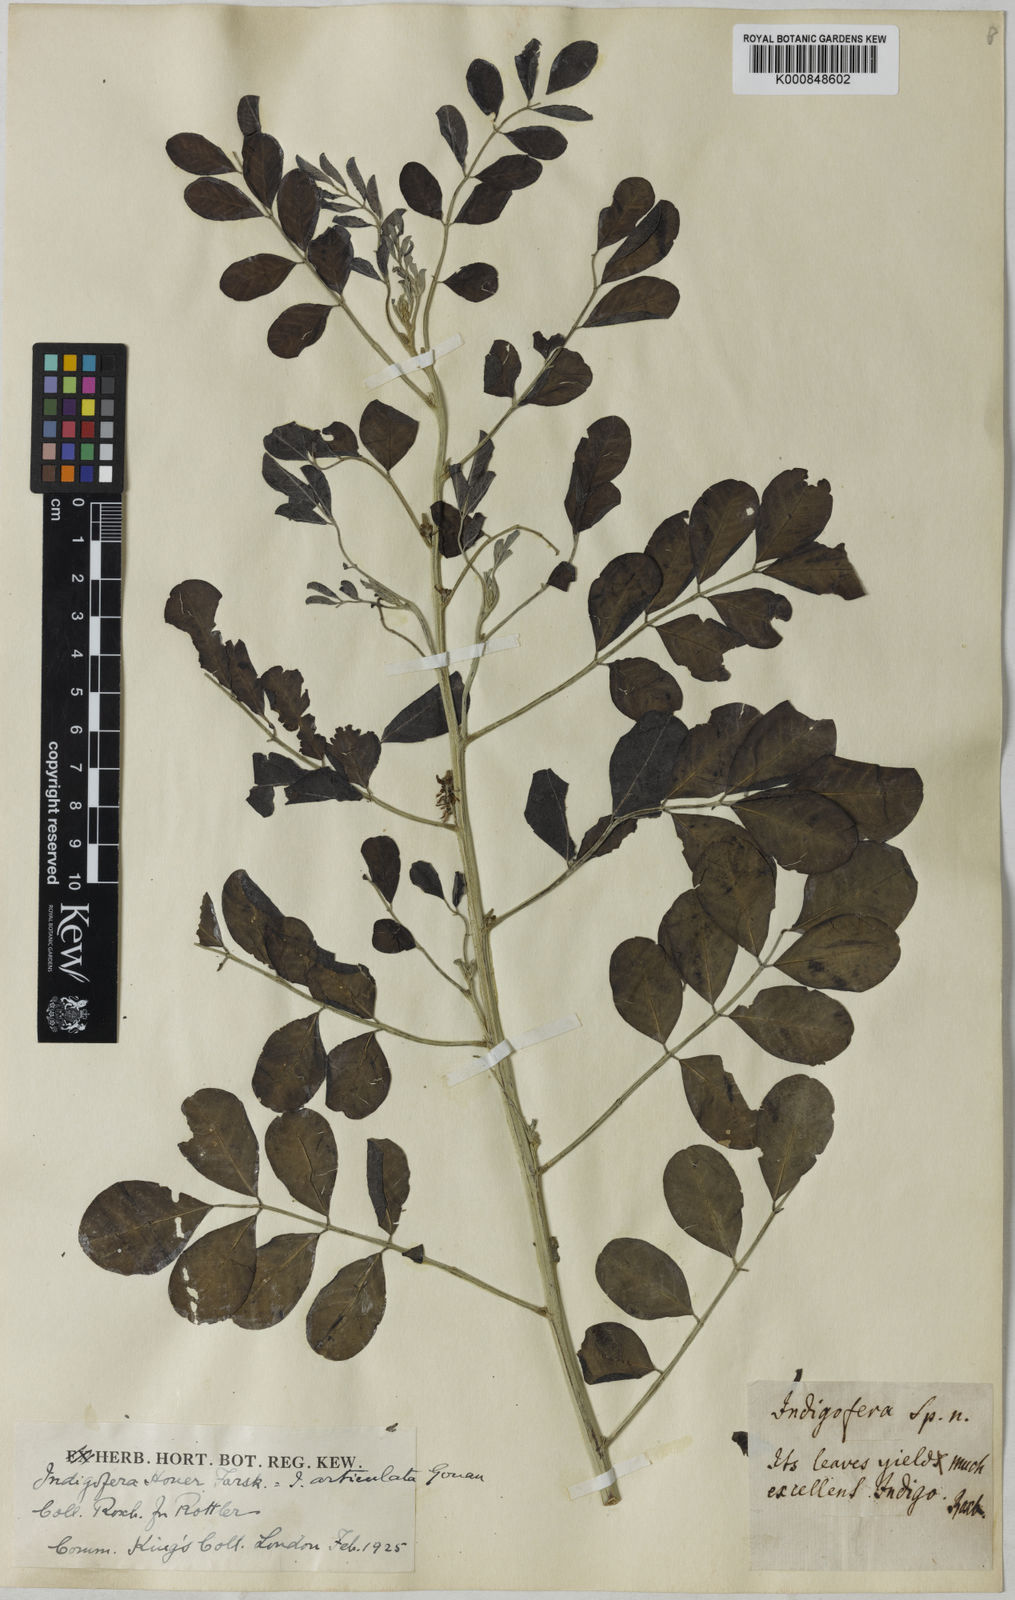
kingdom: Plantae
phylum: Tracheophyta
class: Magnoliopsida
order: Fabales
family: Fabaceae
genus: Indigofera
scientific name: Indigofera coerulea
